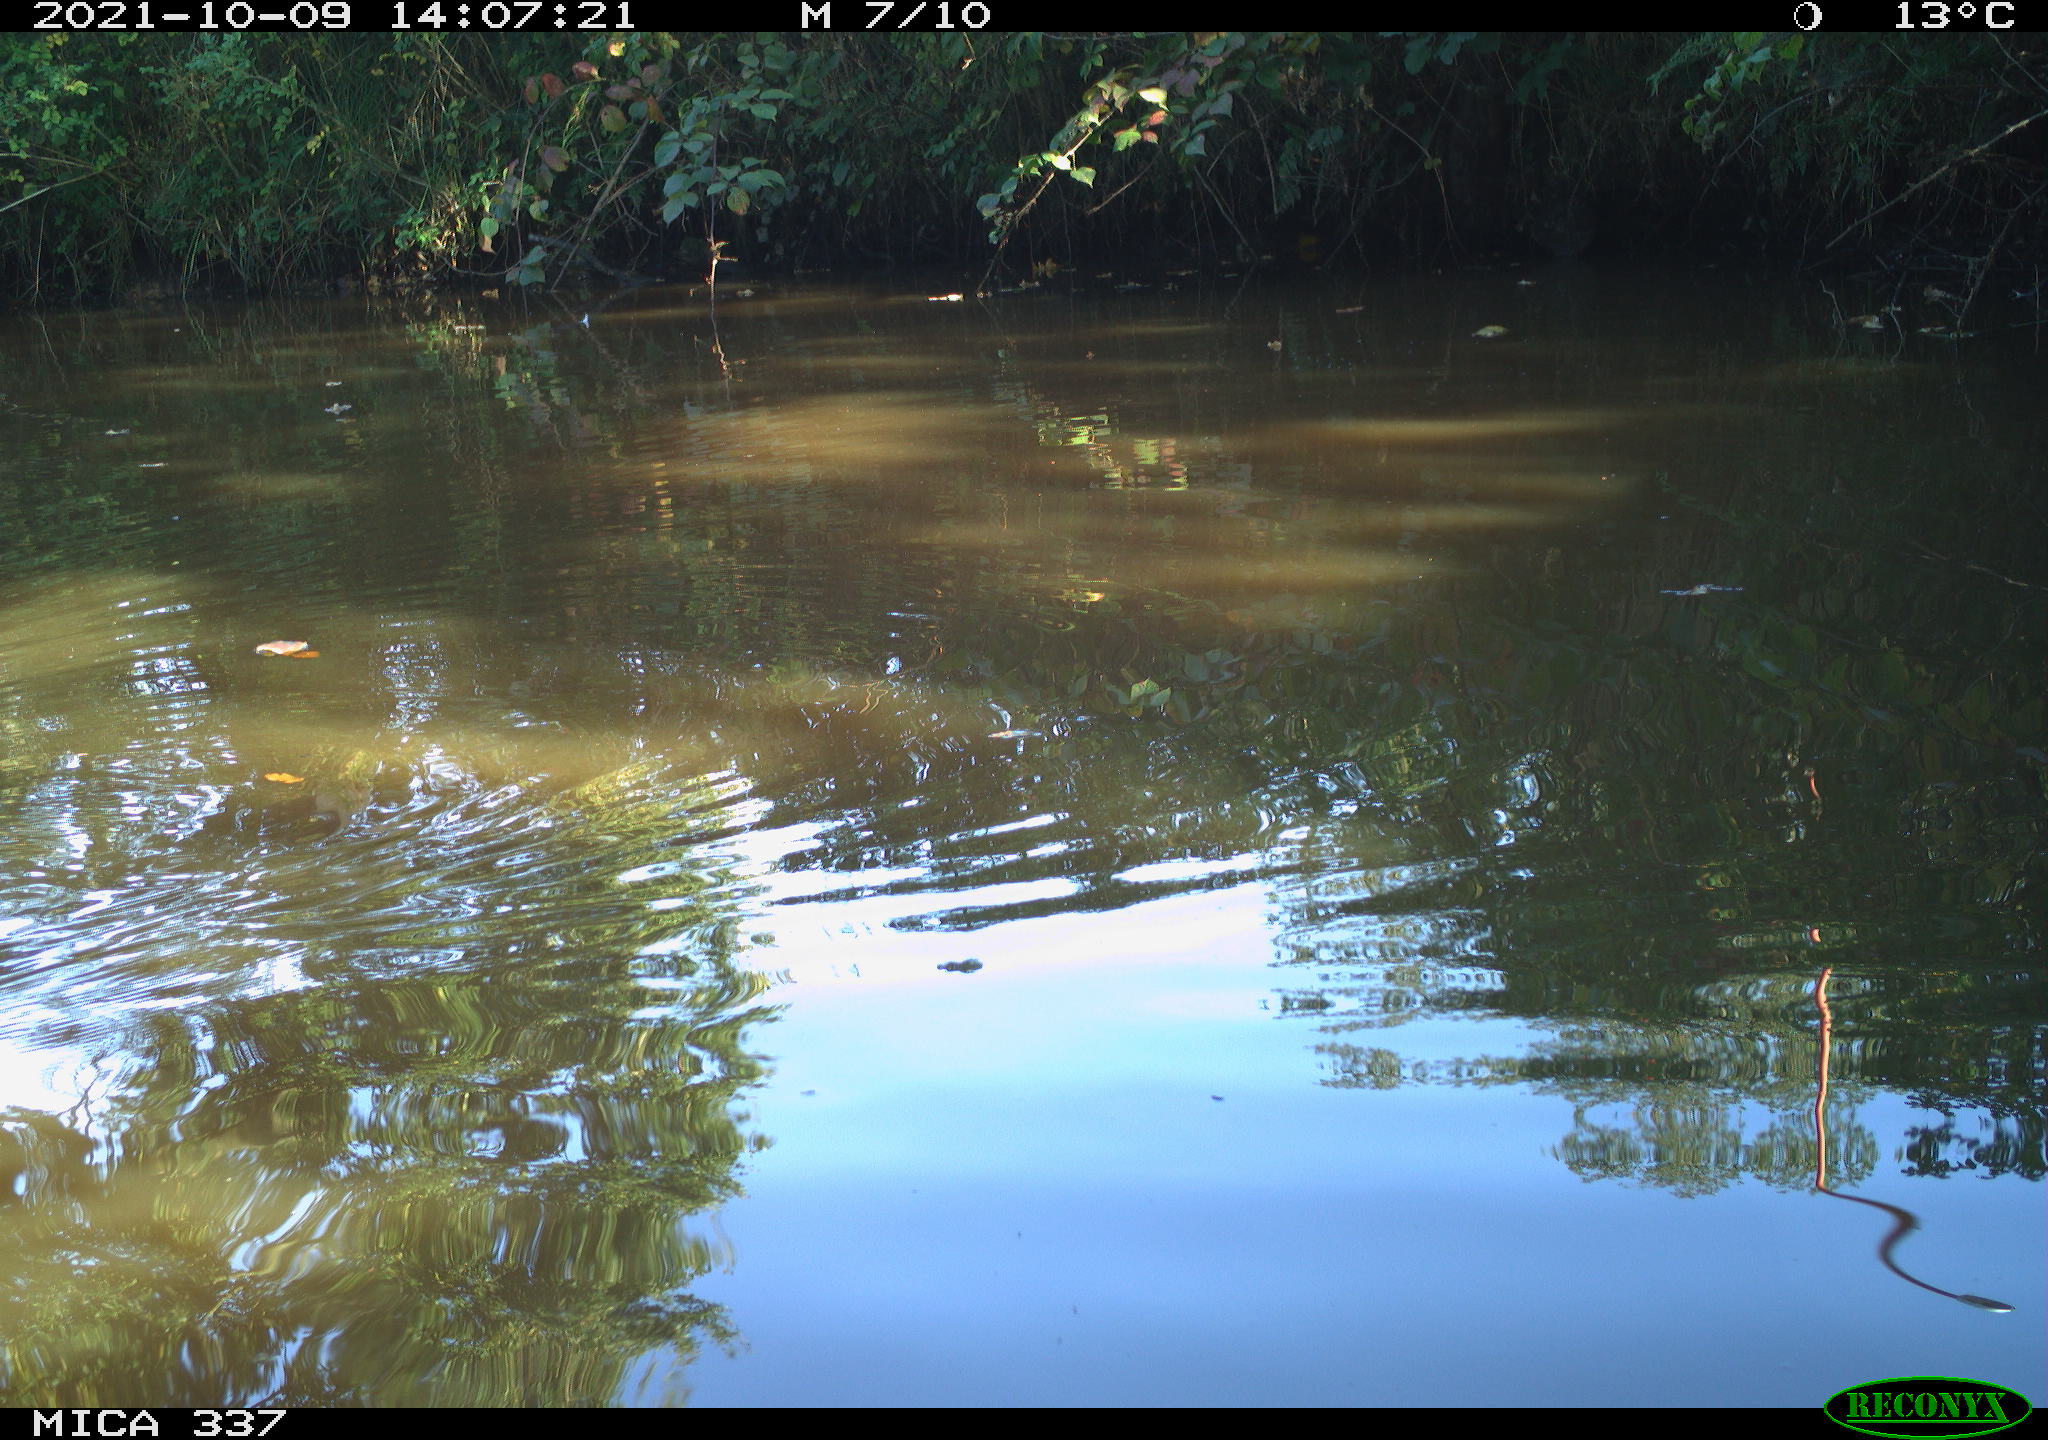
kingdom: Animalia
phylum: Chordata
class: Aves
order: Gruiformes
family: Rallidae
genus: Gallinula
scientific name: Gallinula chloropus
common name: Common moorhen
